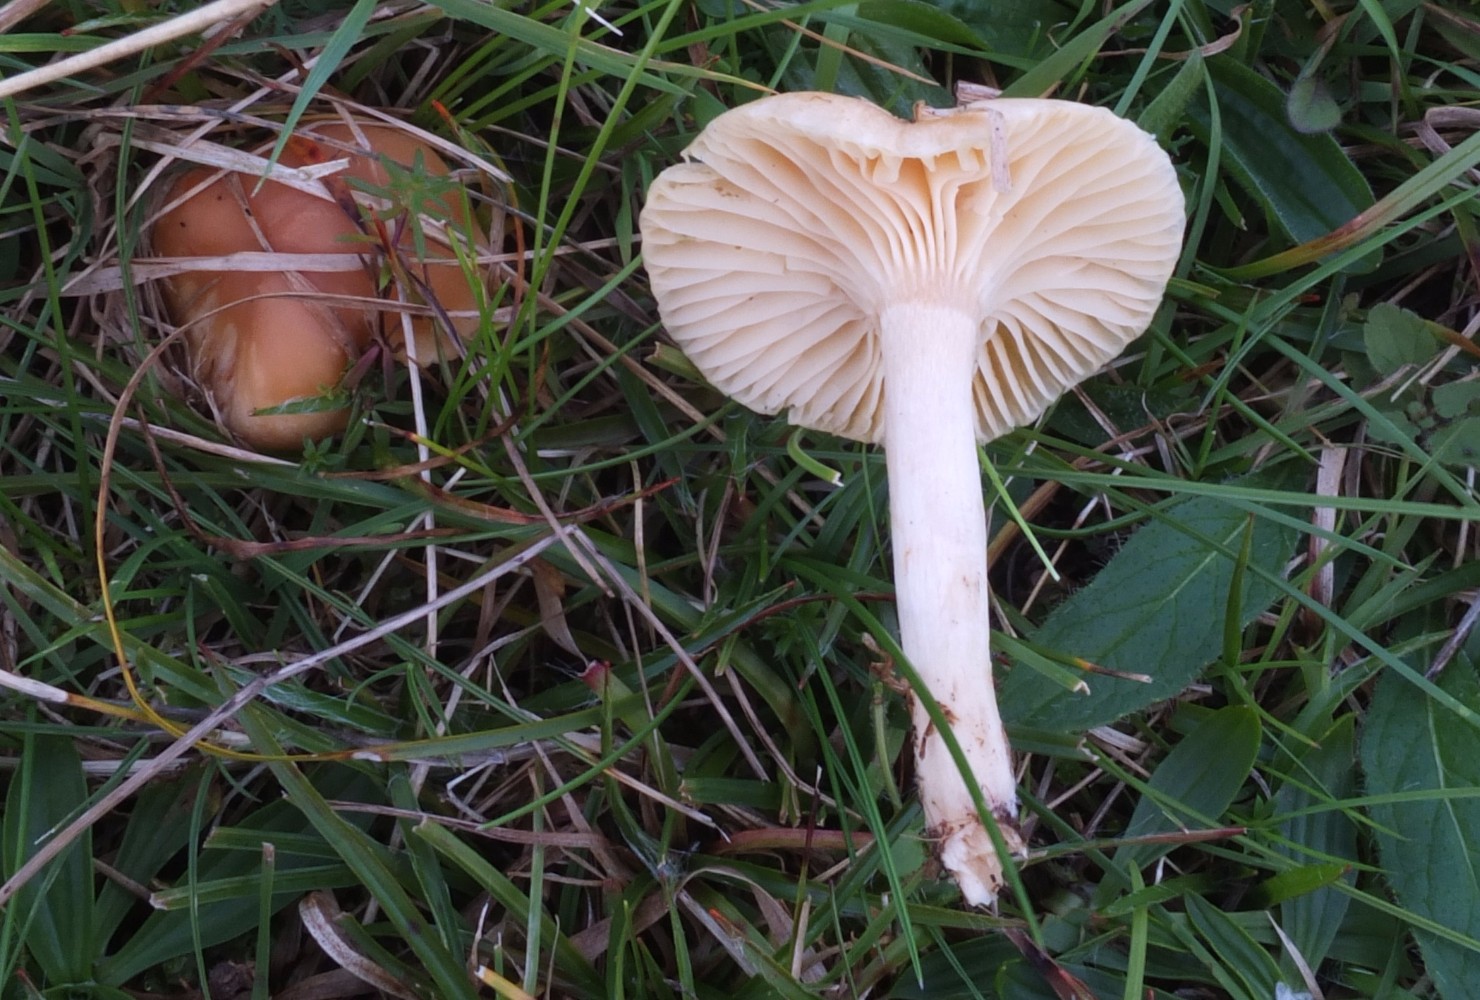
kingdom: Fungi
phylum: Basidiomycota
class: Agaricomycetes
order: Agaricales
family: Hygrophoraceae
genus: Cuphophyllus
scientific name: Cuphophyllus pratensis
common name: eng-vokshat
